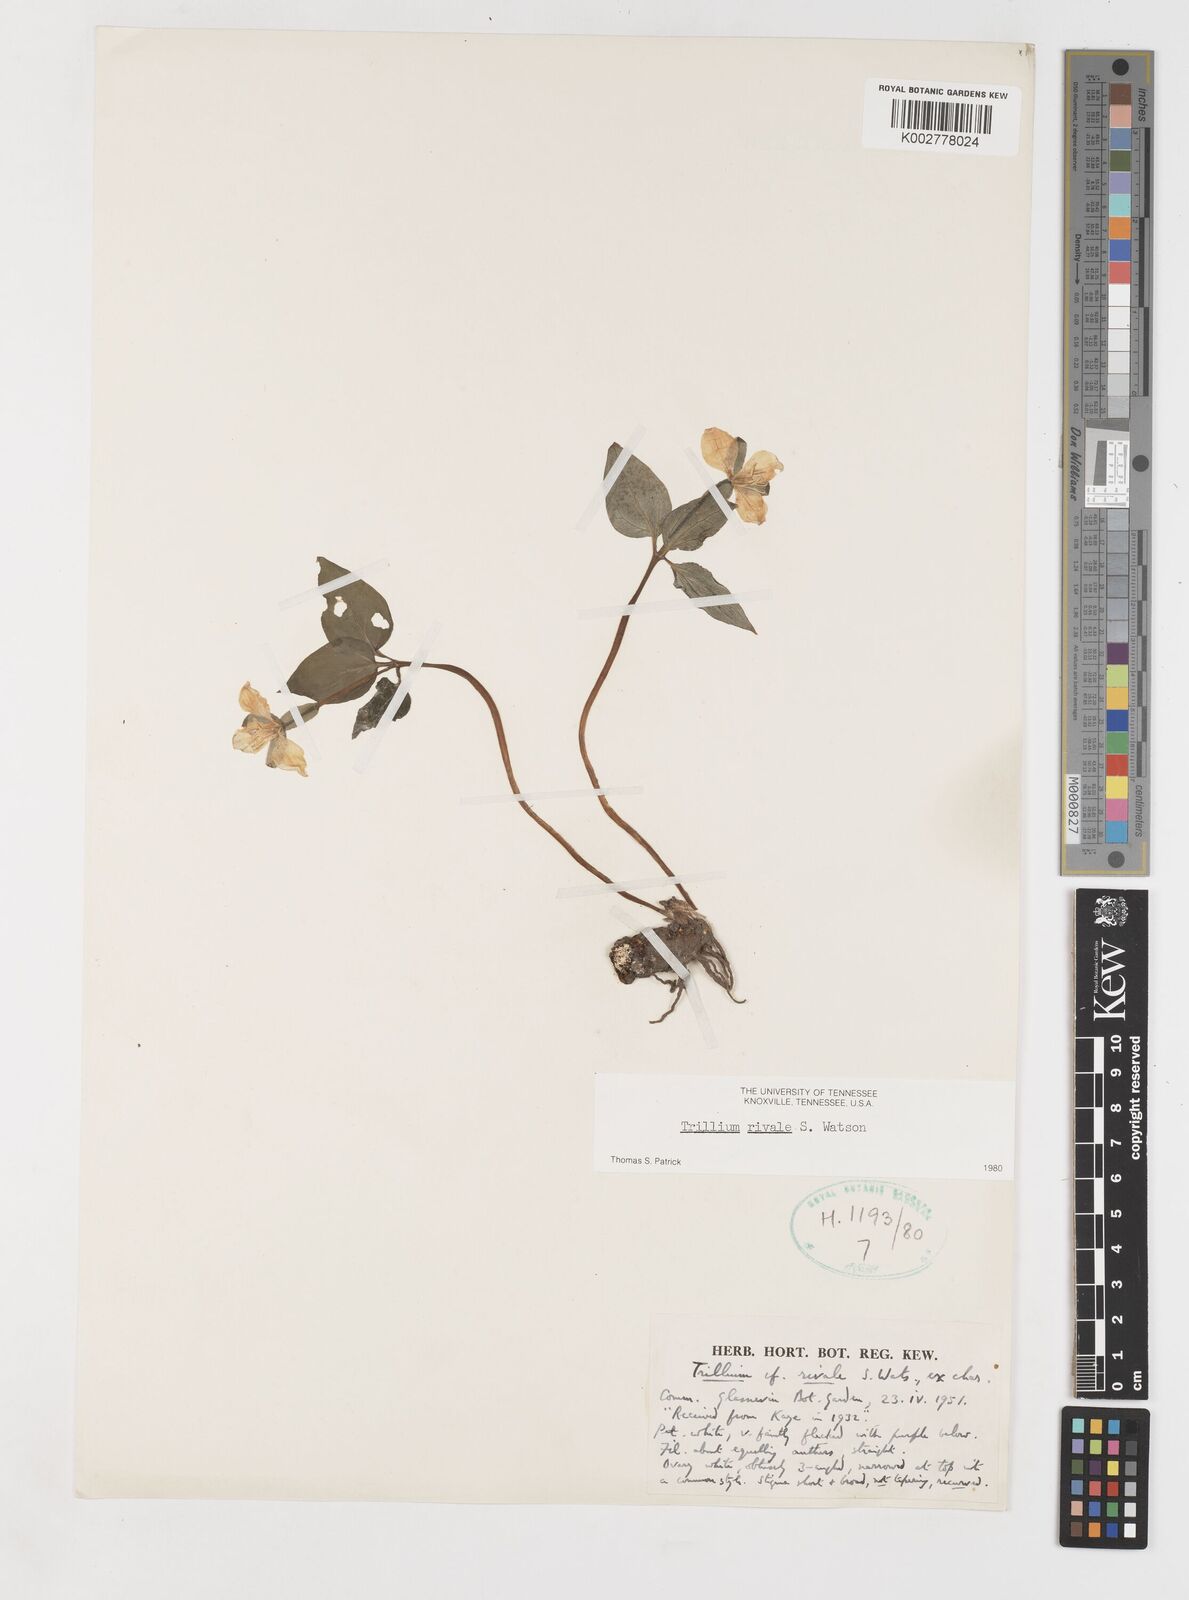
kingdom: Plantae
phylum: Tracheophyta
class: Liliopsida
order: Liliales
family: Melanthiaceae
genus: Pseudotrillium
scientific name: Pseudotrillium rivale
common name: Brook wakerobin
